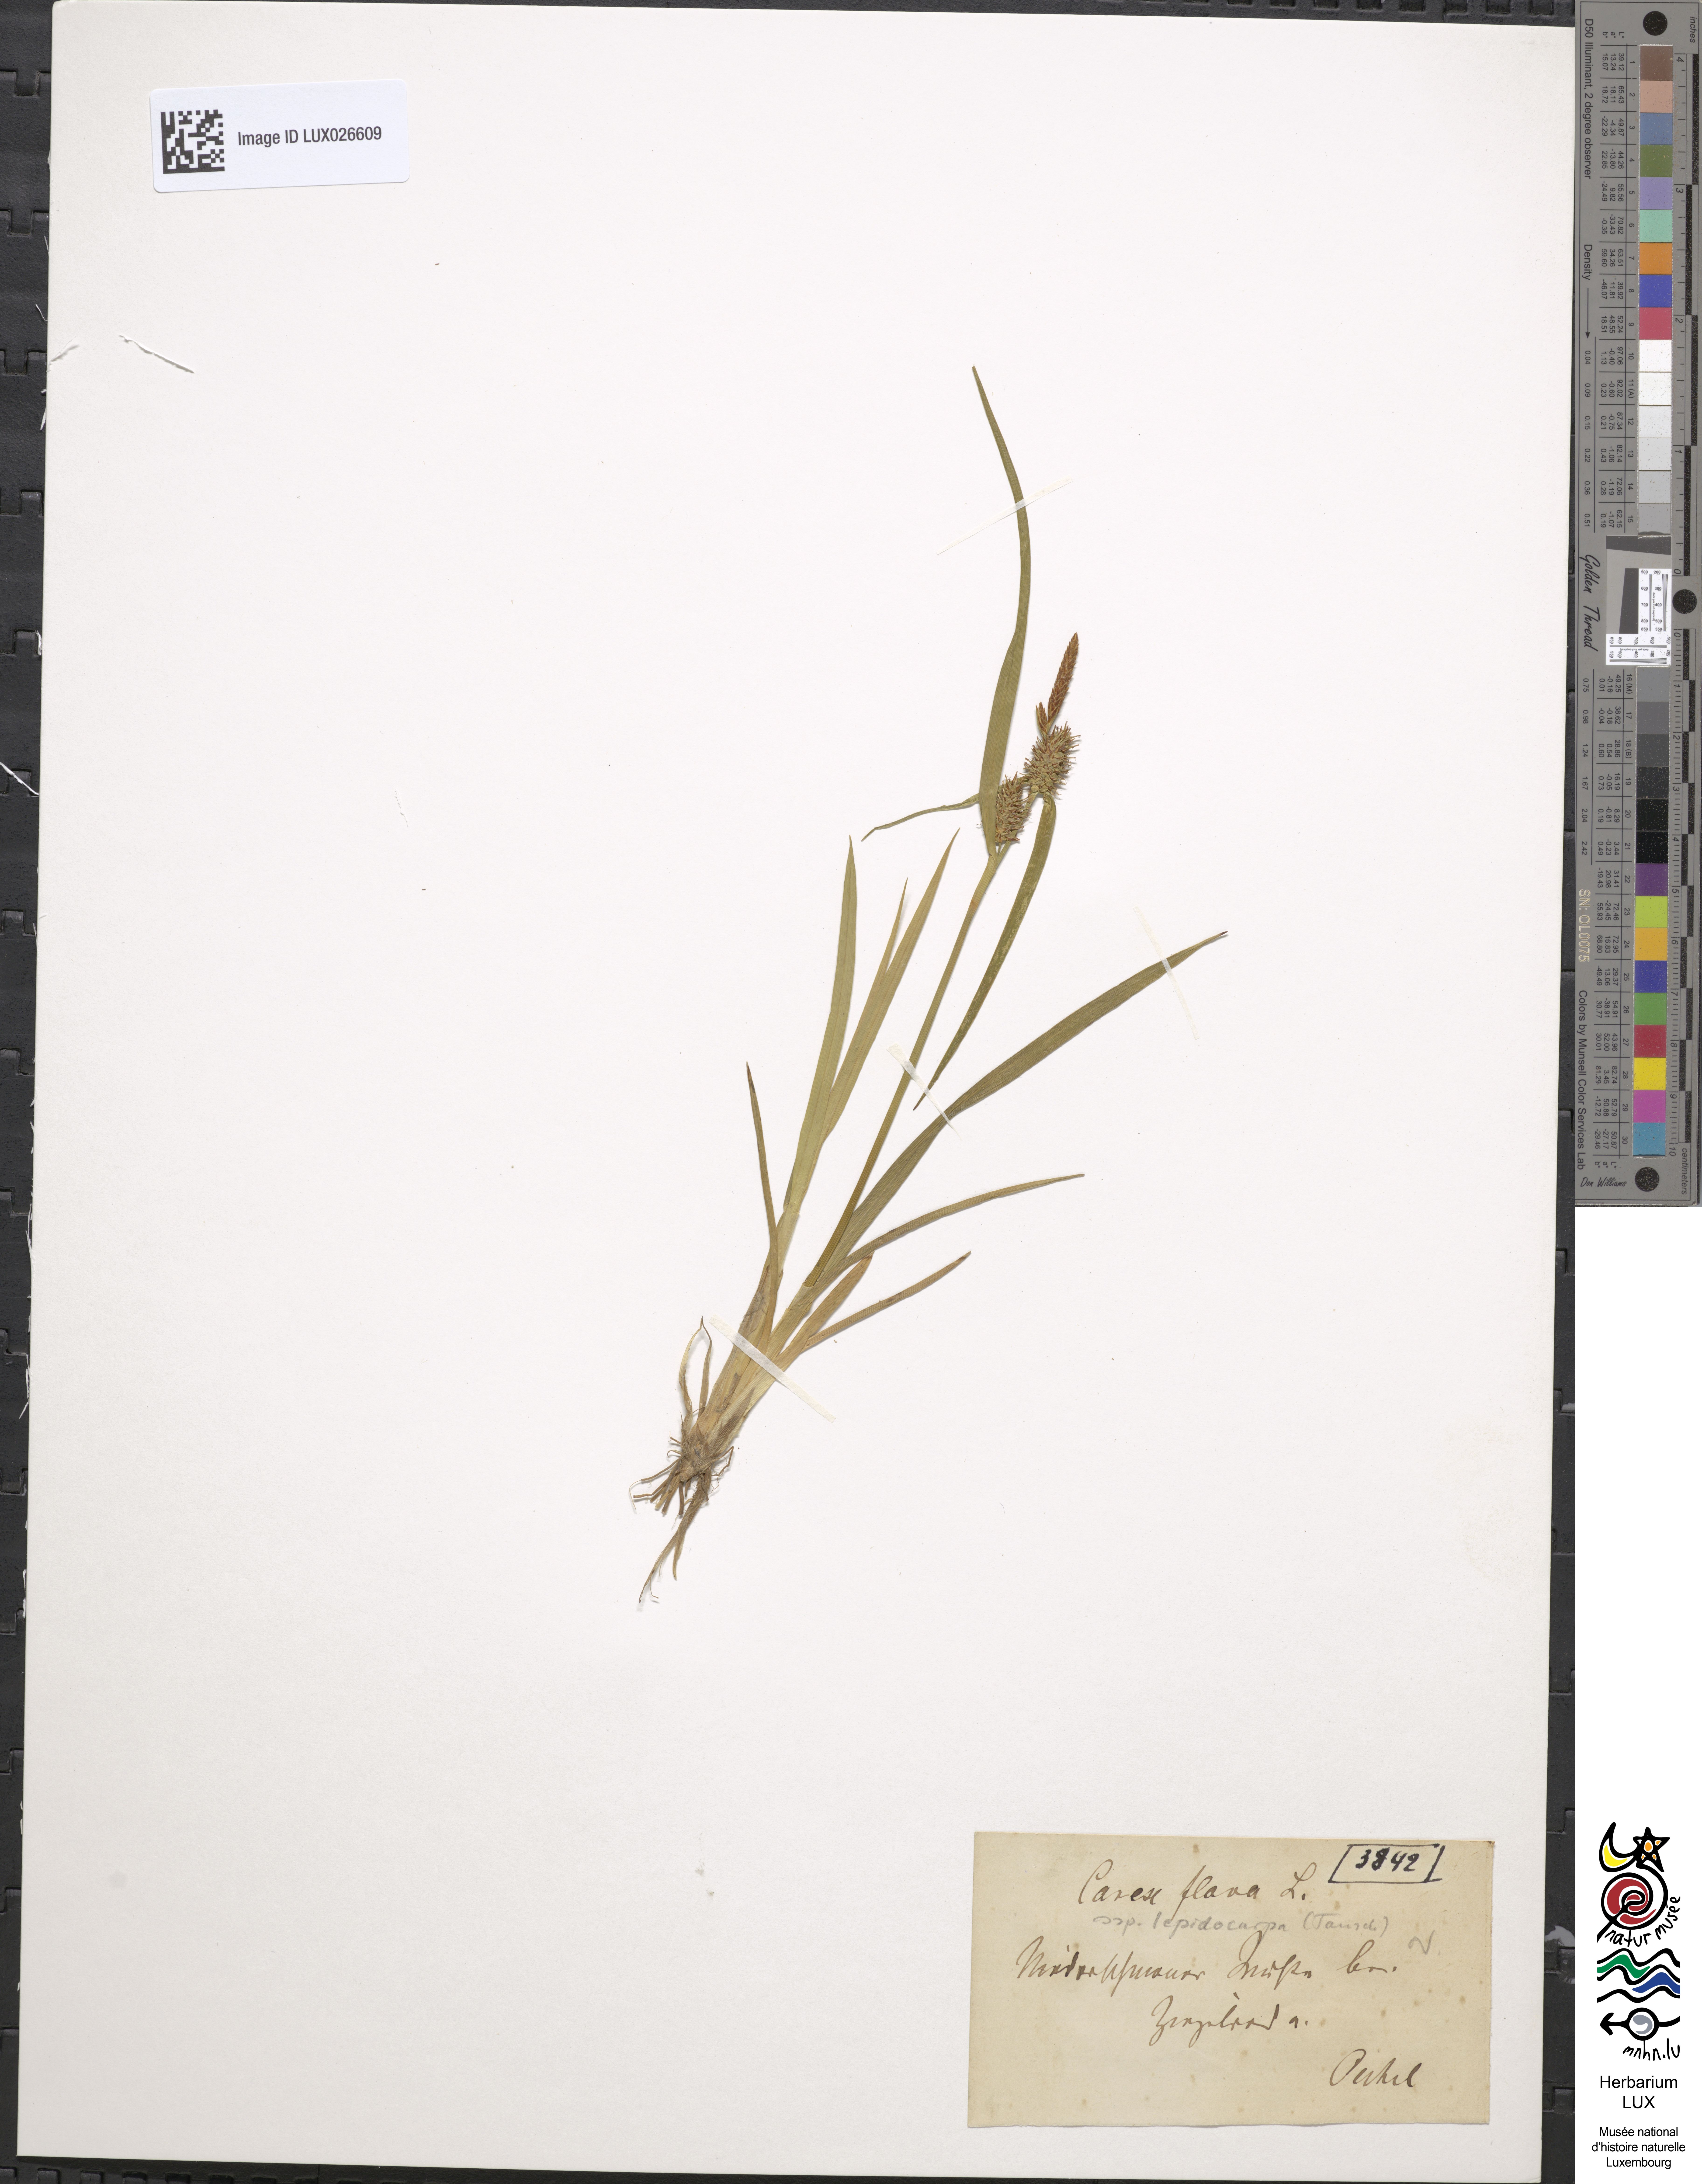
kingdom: Plantae
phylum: Tracheophyta
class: Liliopsida
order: Poales
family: Cyperaceae
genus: Carex
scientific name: Carex lepidocarpa
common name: Long-stalked yellow-sedge
